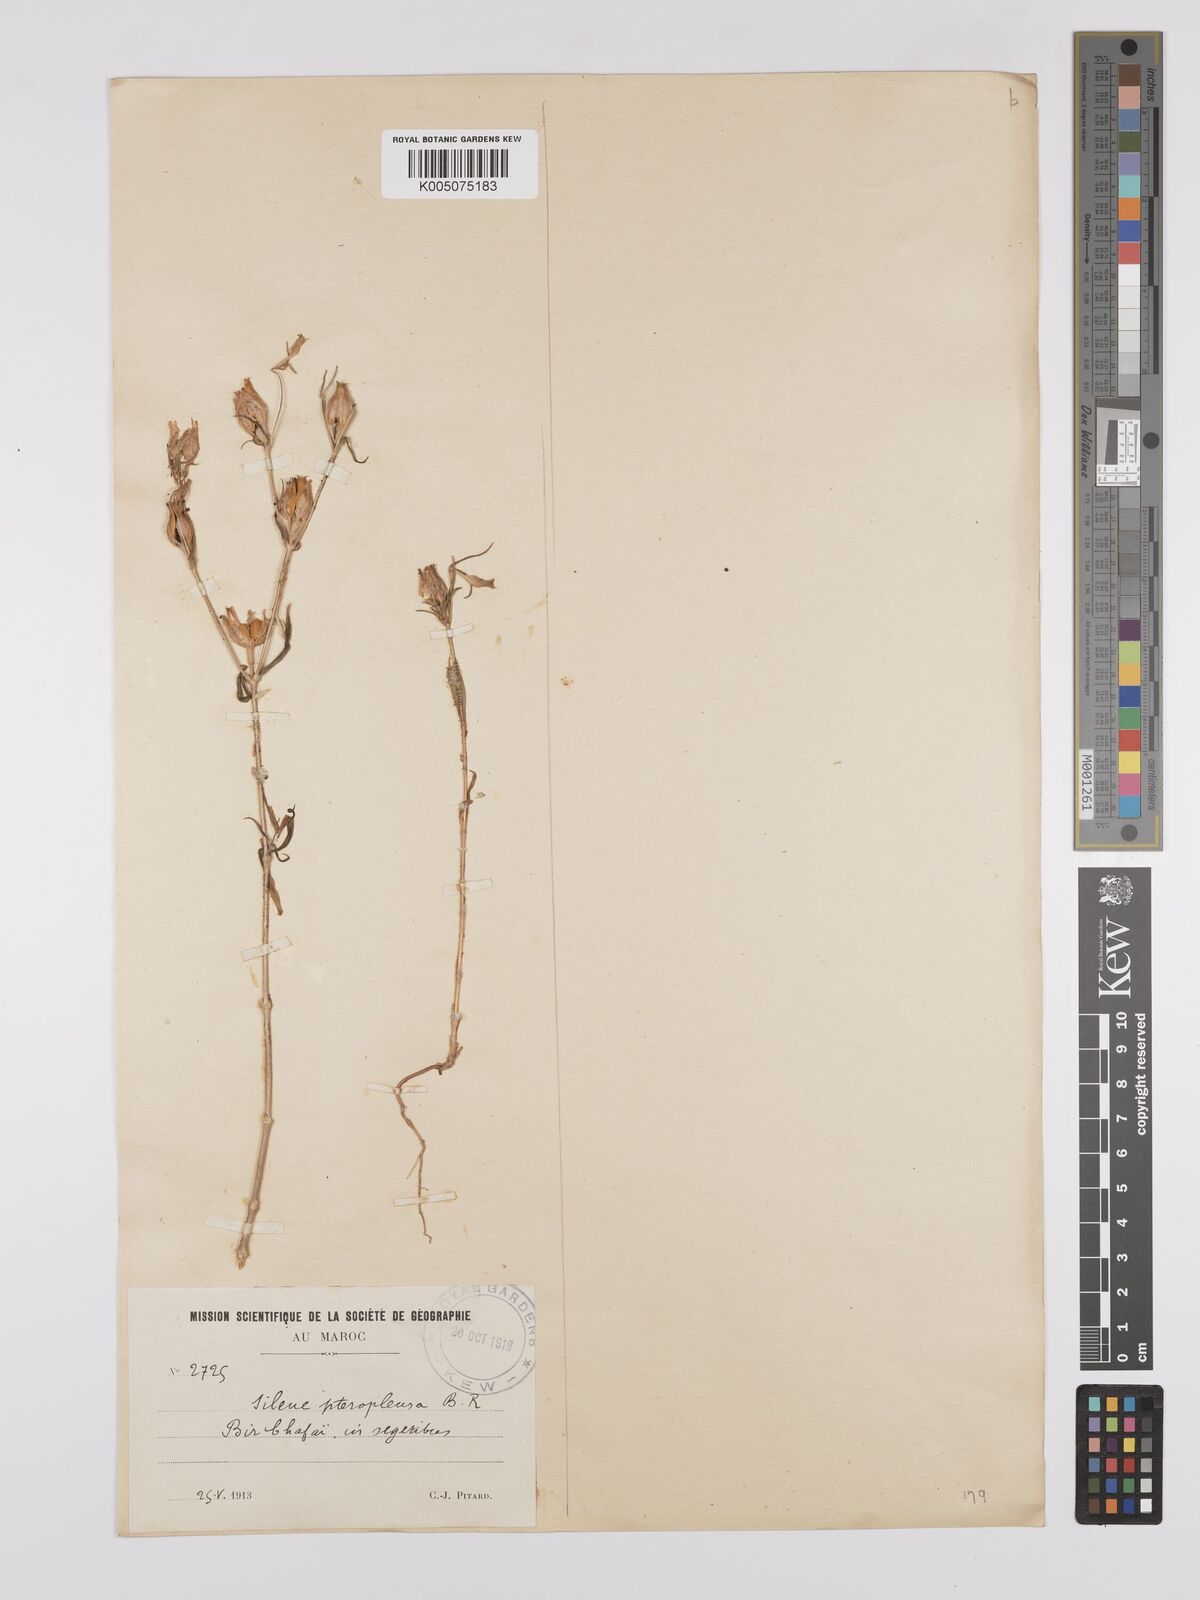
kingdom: Plantae
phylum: Tracheophyta
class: Magnoliopsida
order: Caryophyllales
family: Caryophyllaceae
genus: Silene
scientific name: Silene stricta
